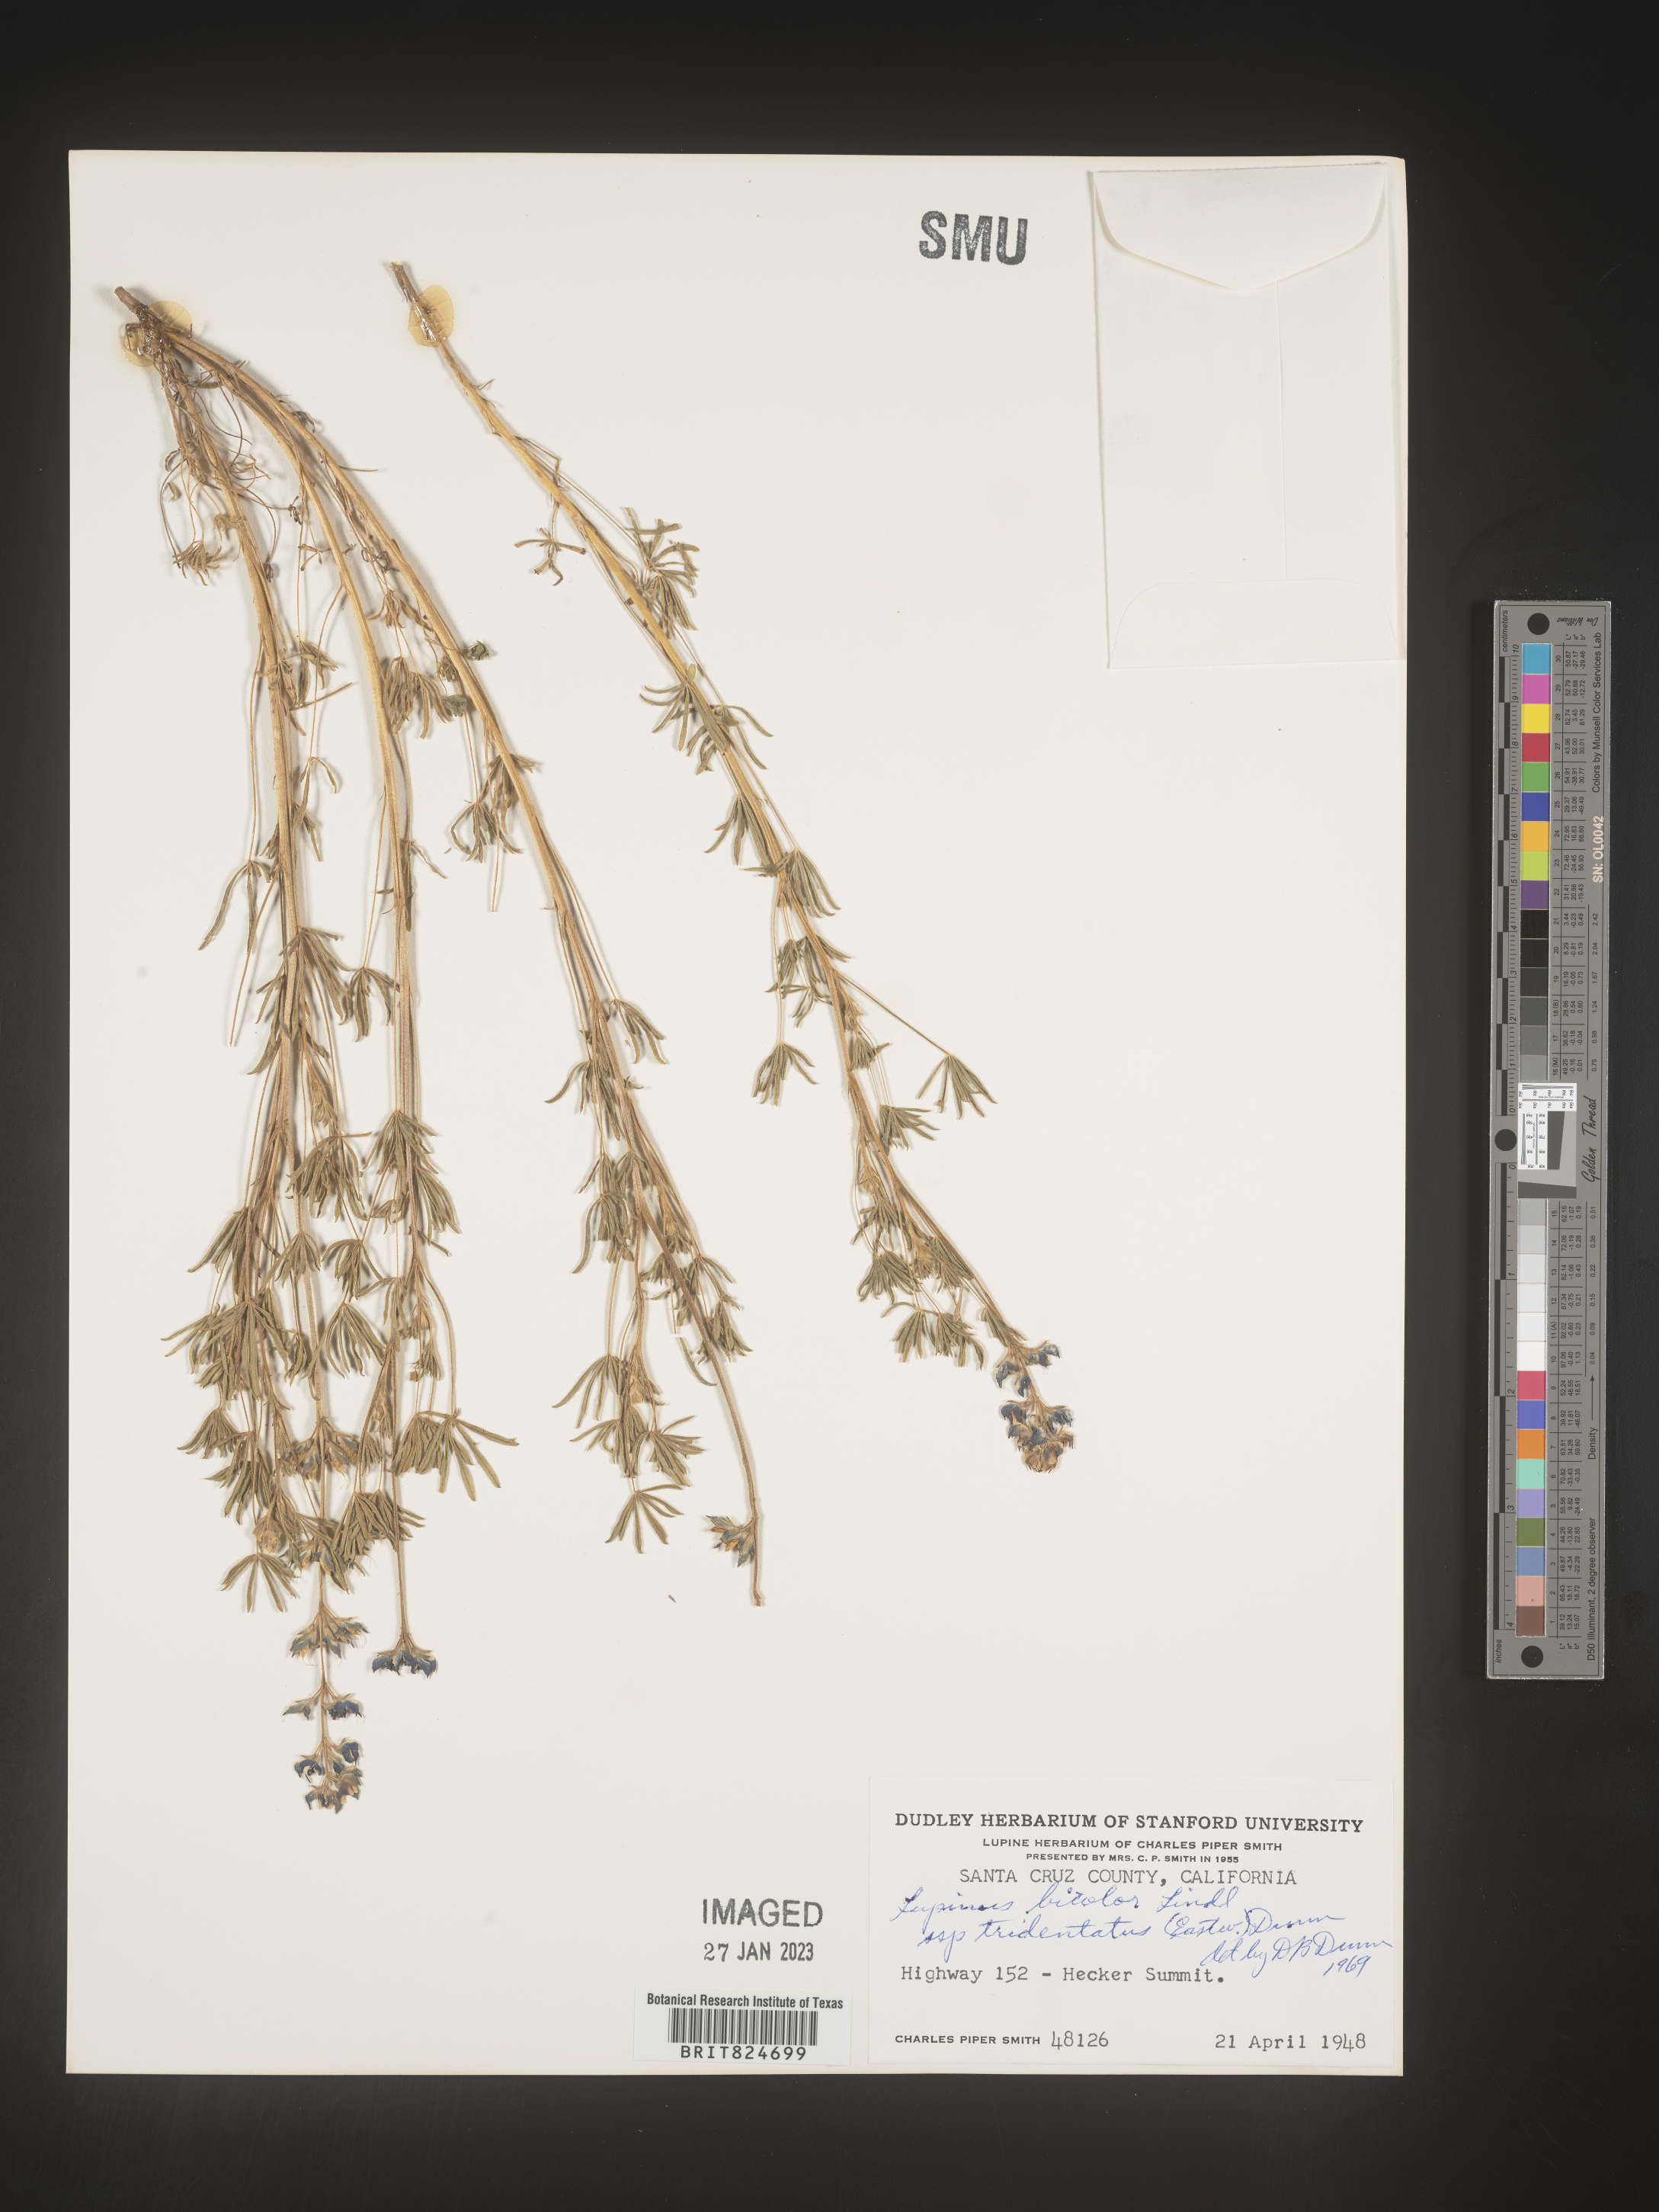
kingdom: Plantae
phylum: Tracheophyta
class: Magnoliopsida
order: Fabales
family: Fabaceae
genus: Lupinus
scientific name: Lupinus bicolor
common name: Miniature lupine
